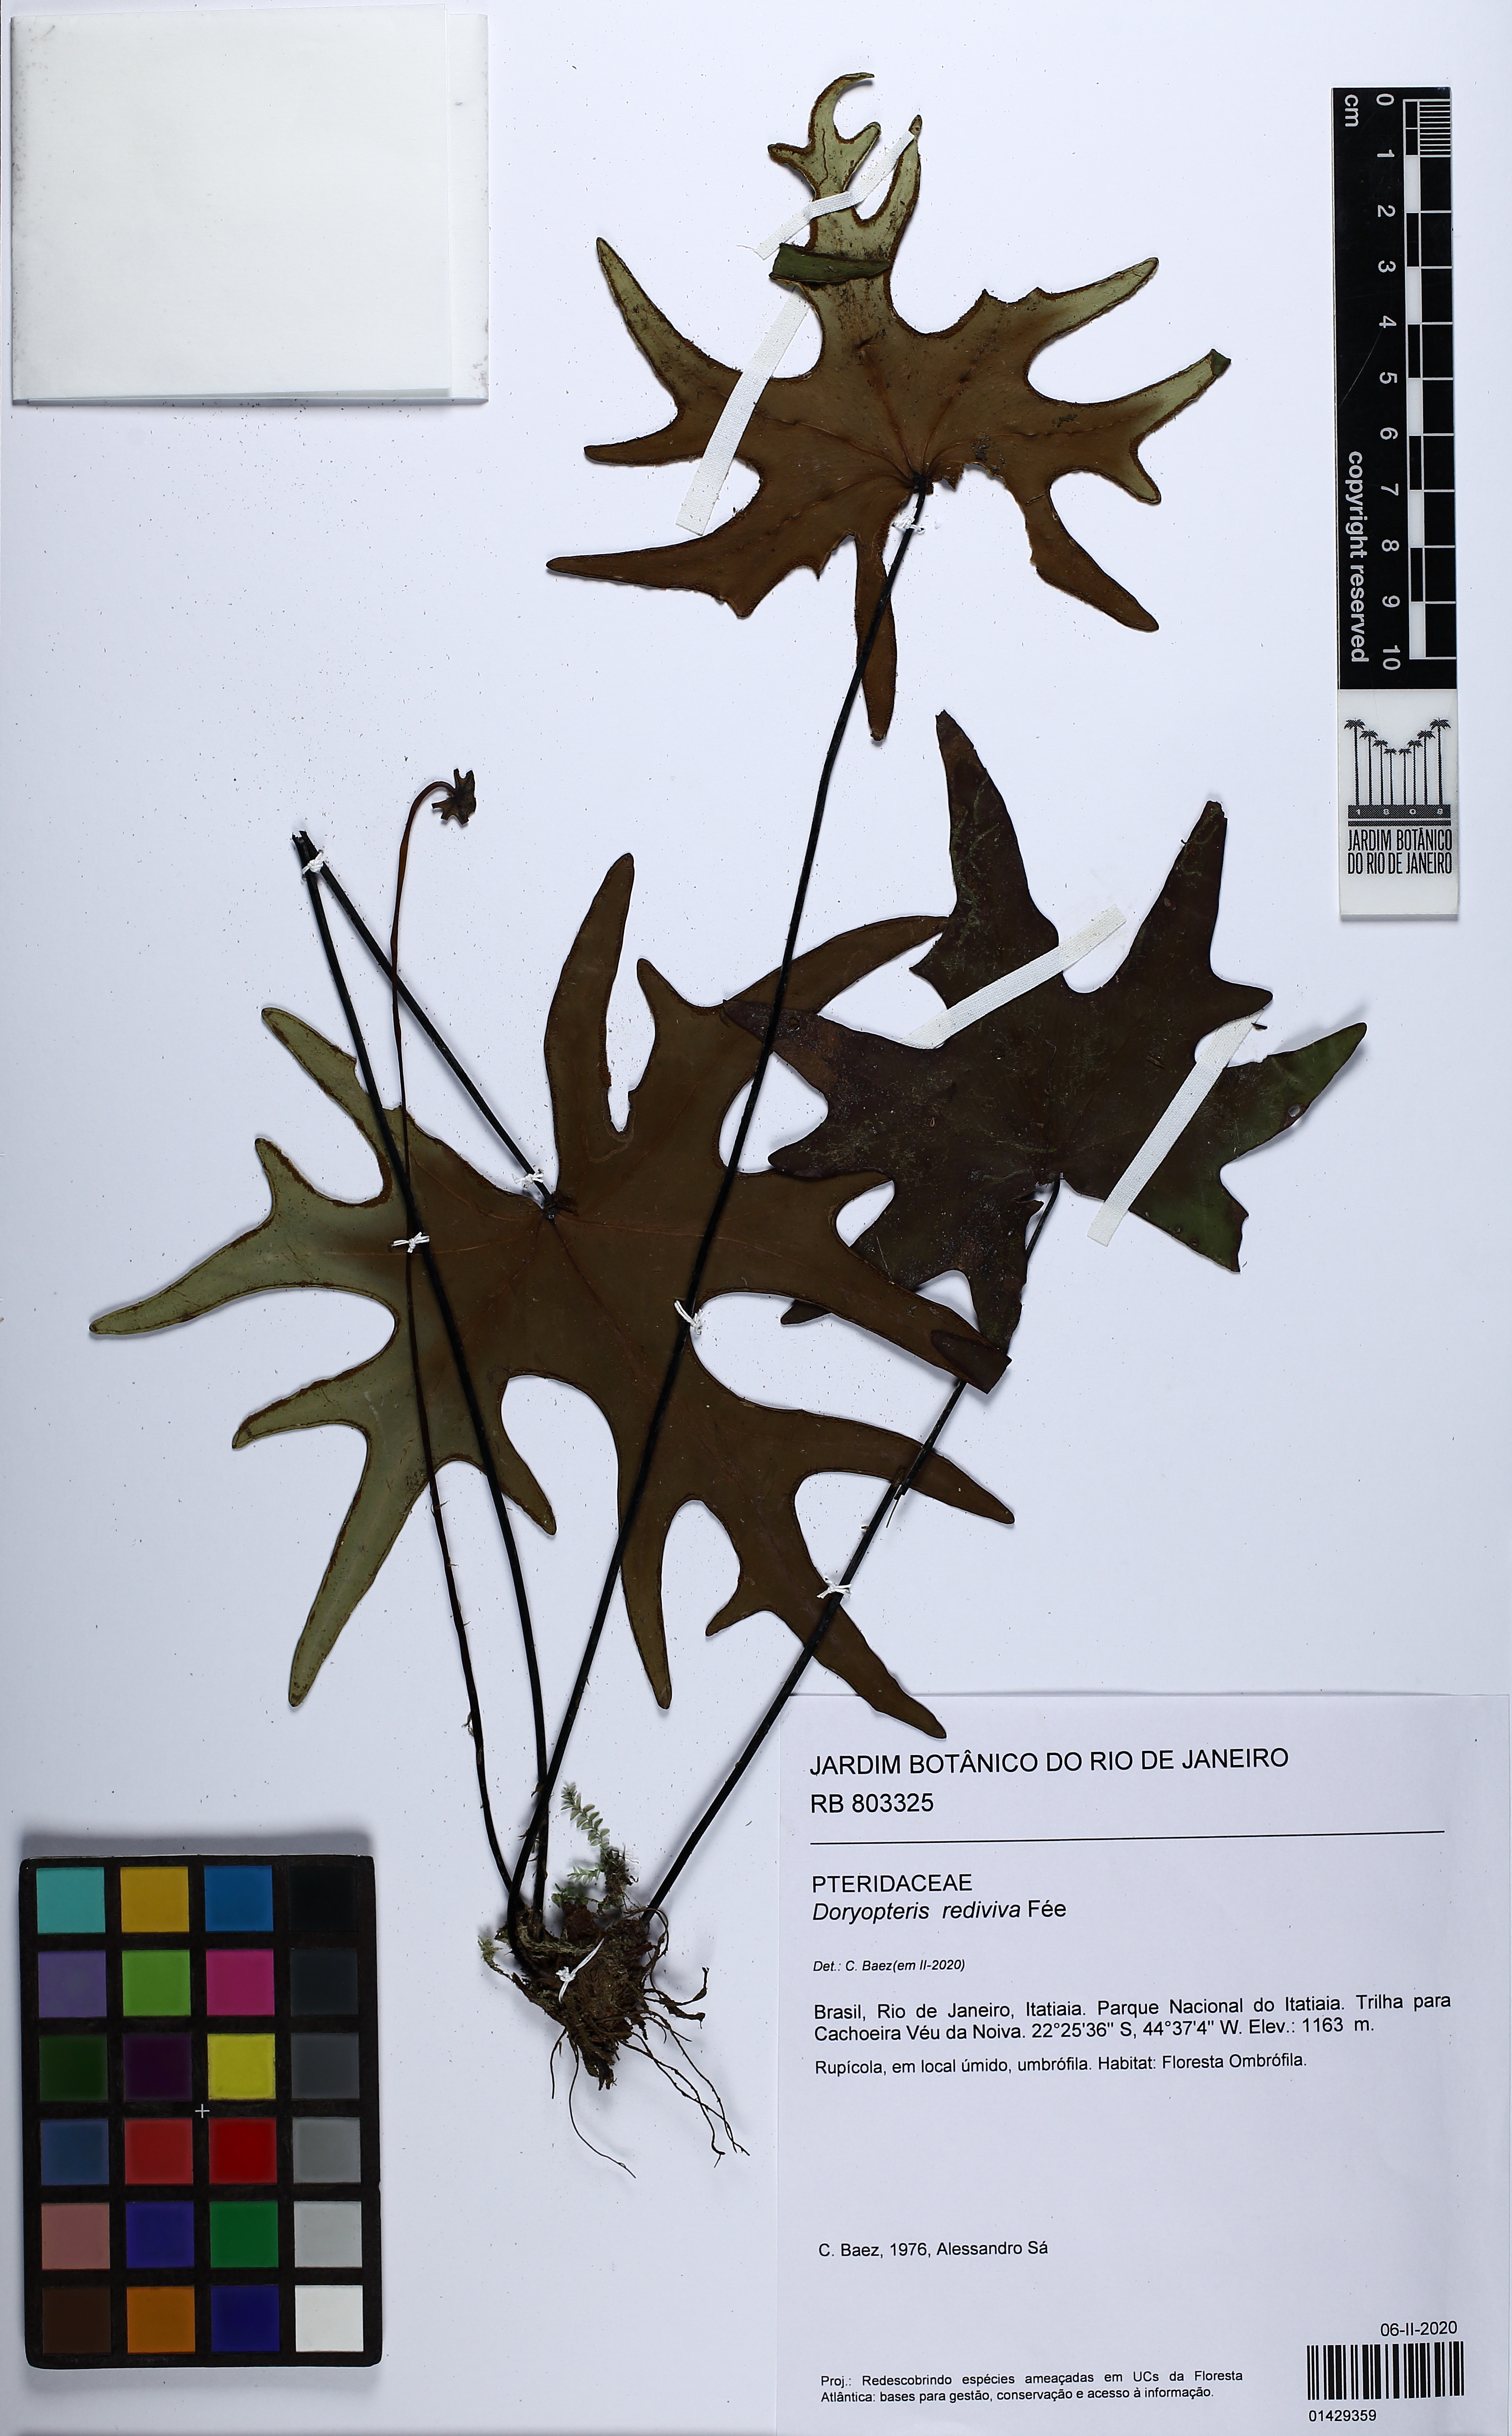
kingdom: Plantae
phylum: Tracheophyta
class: Polypodiopsida
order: Polypodiales
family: Pteridaceae
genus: Doryopteris
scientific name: Doryopteris rediviva
